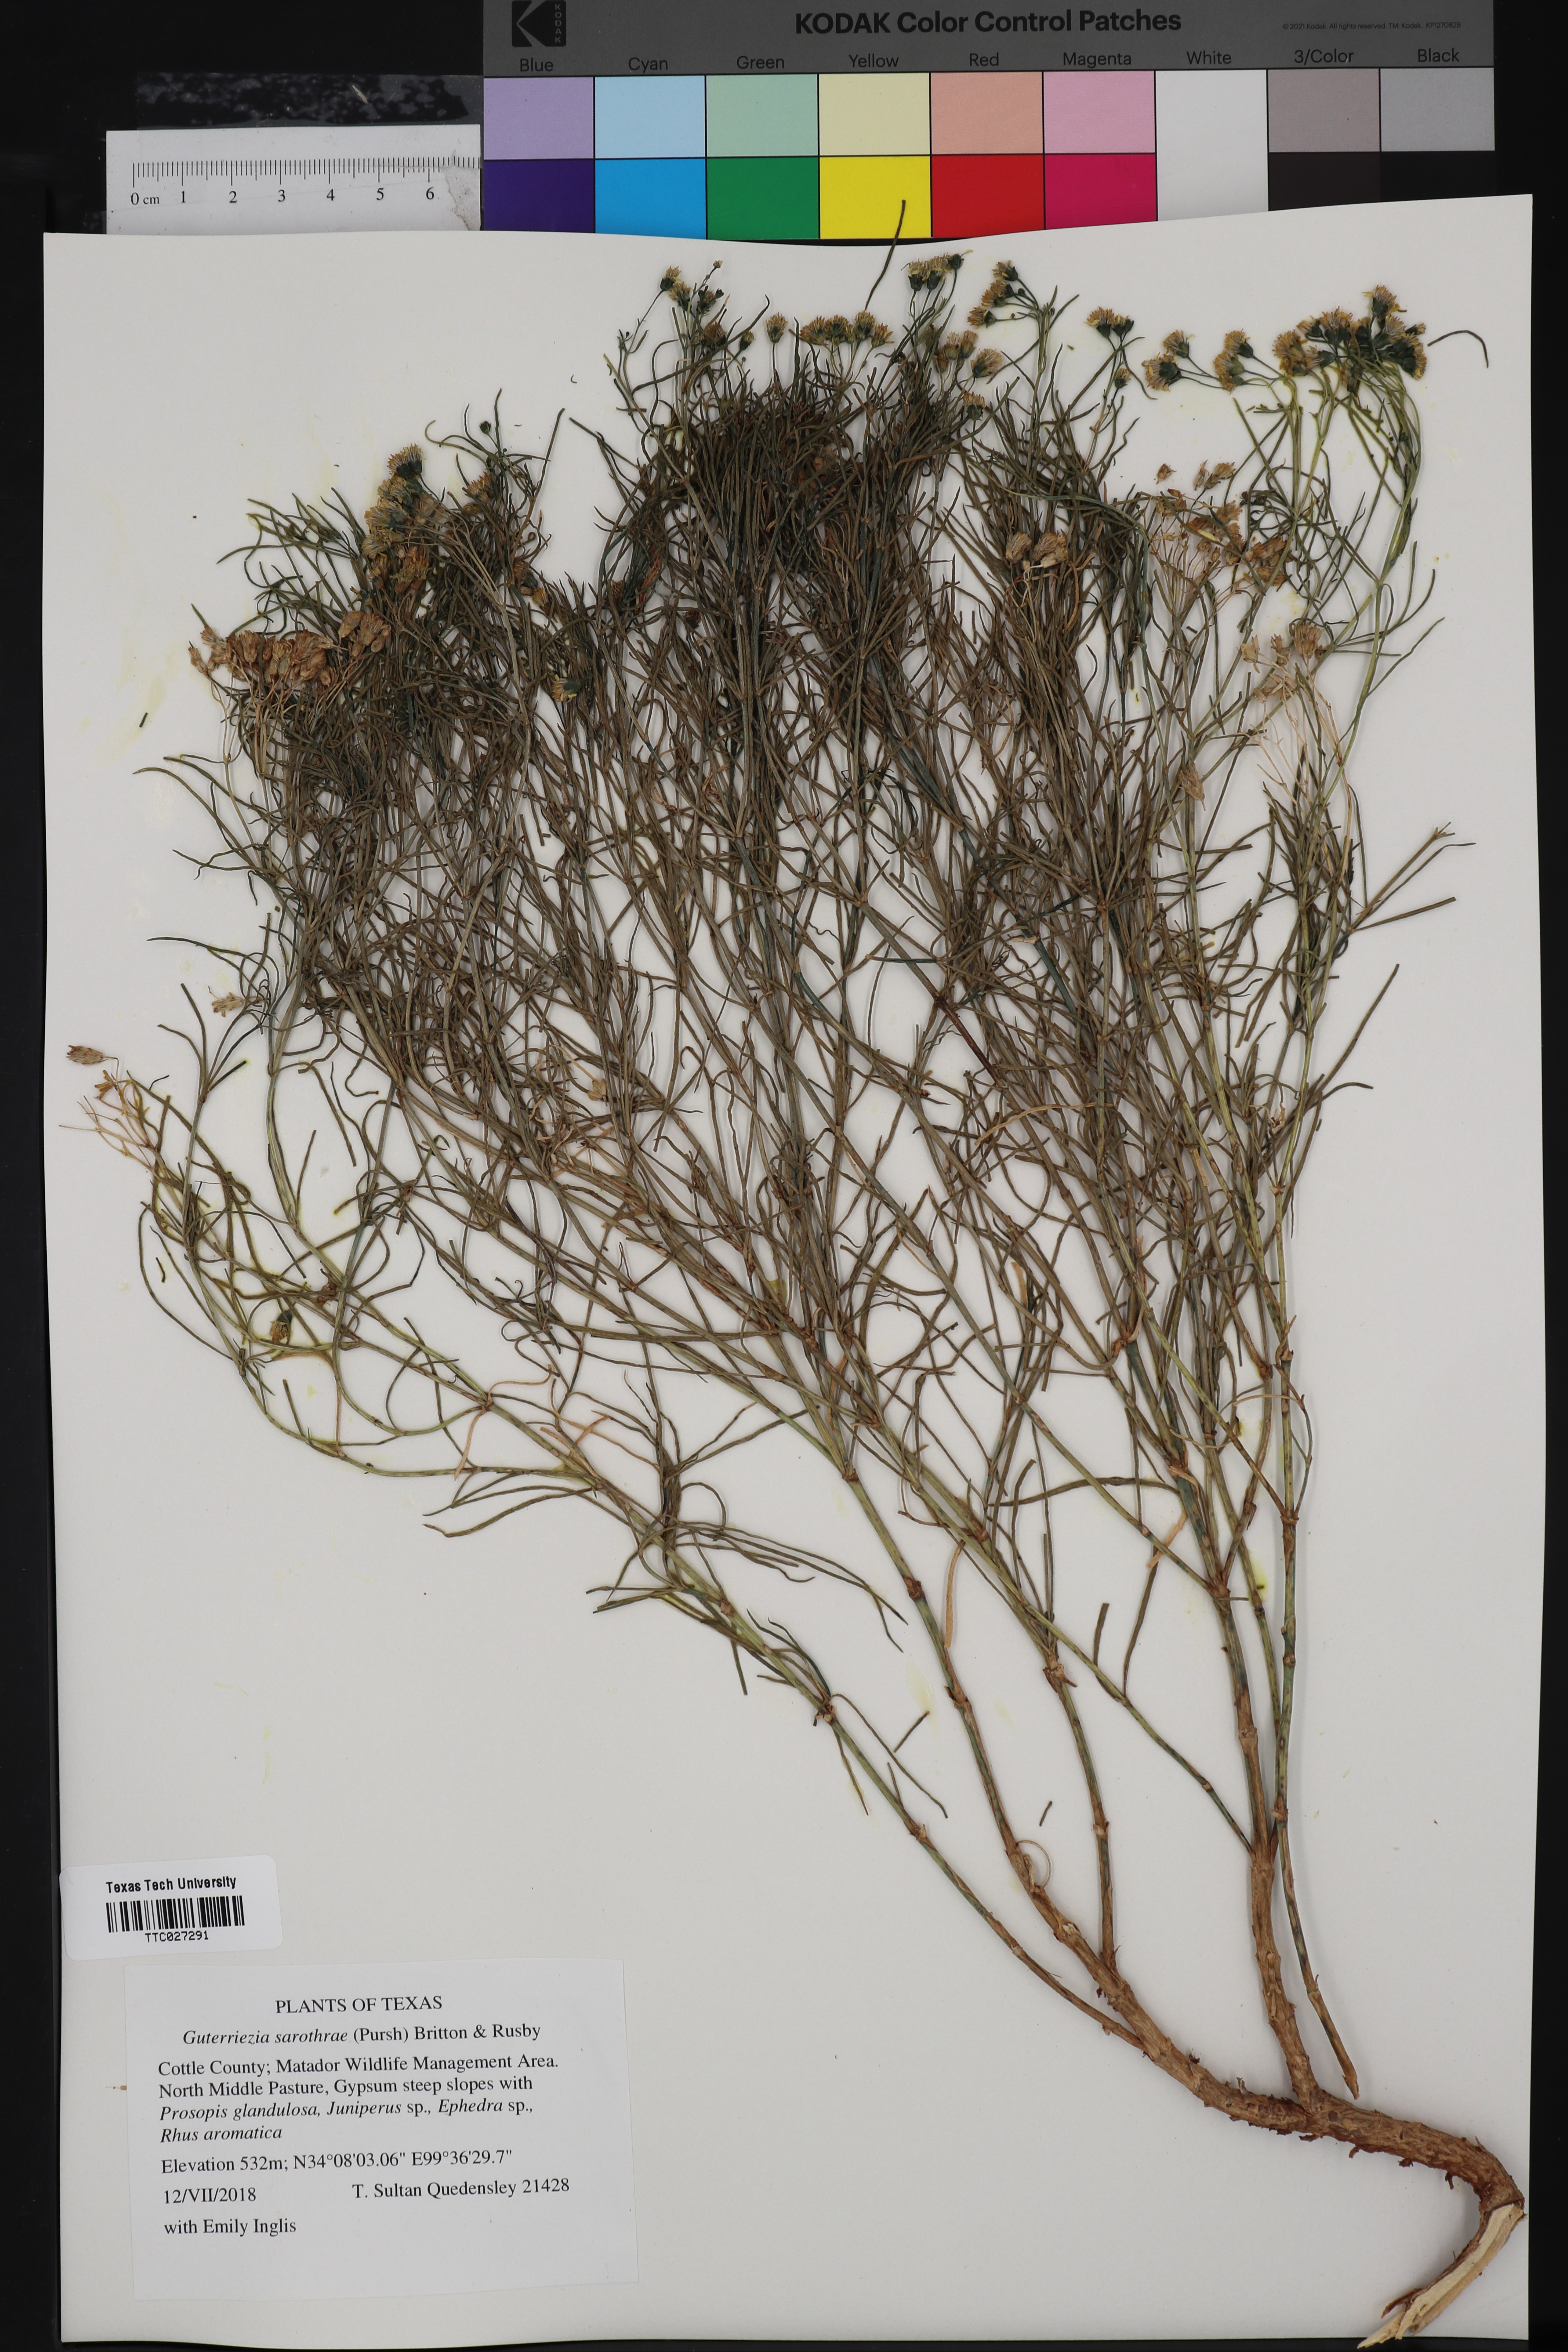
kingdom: Plantae
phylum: Tracheophyta
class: Magnoliopsida
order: Asterales
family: Asteraceae
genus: Gutierrezia
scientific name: Gutierrezia sarothrae
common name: Broom snakeweed
